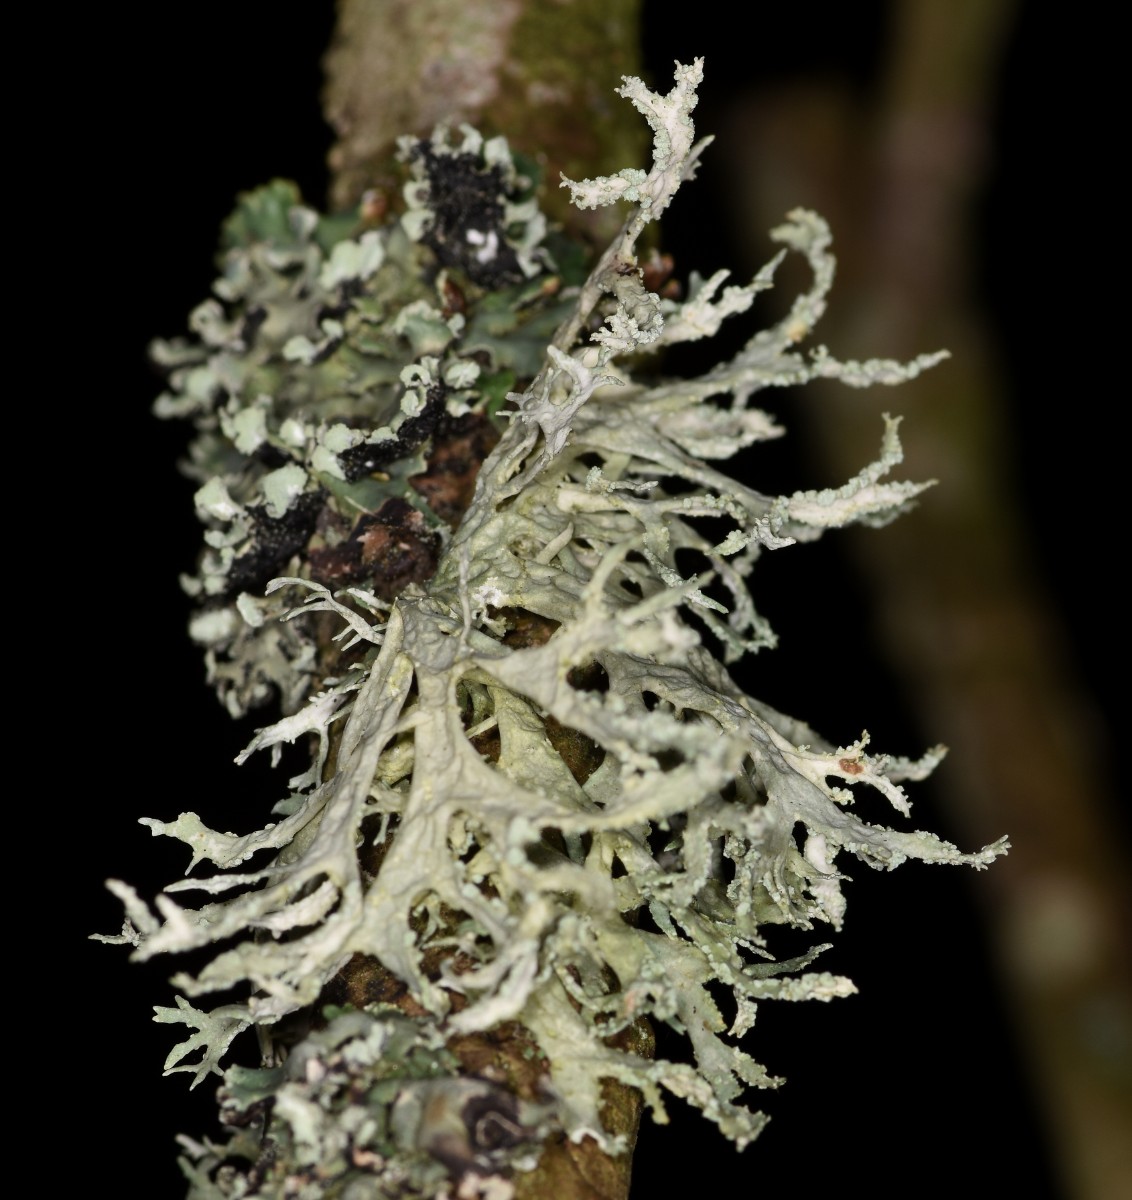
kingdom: Fungi
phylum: Ascomycota
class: Lecanoromycetes
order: Lecanorales
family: Parmeliaceae
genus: Evernia
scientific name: Evernia prunastri
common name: almindelig slåenlav
